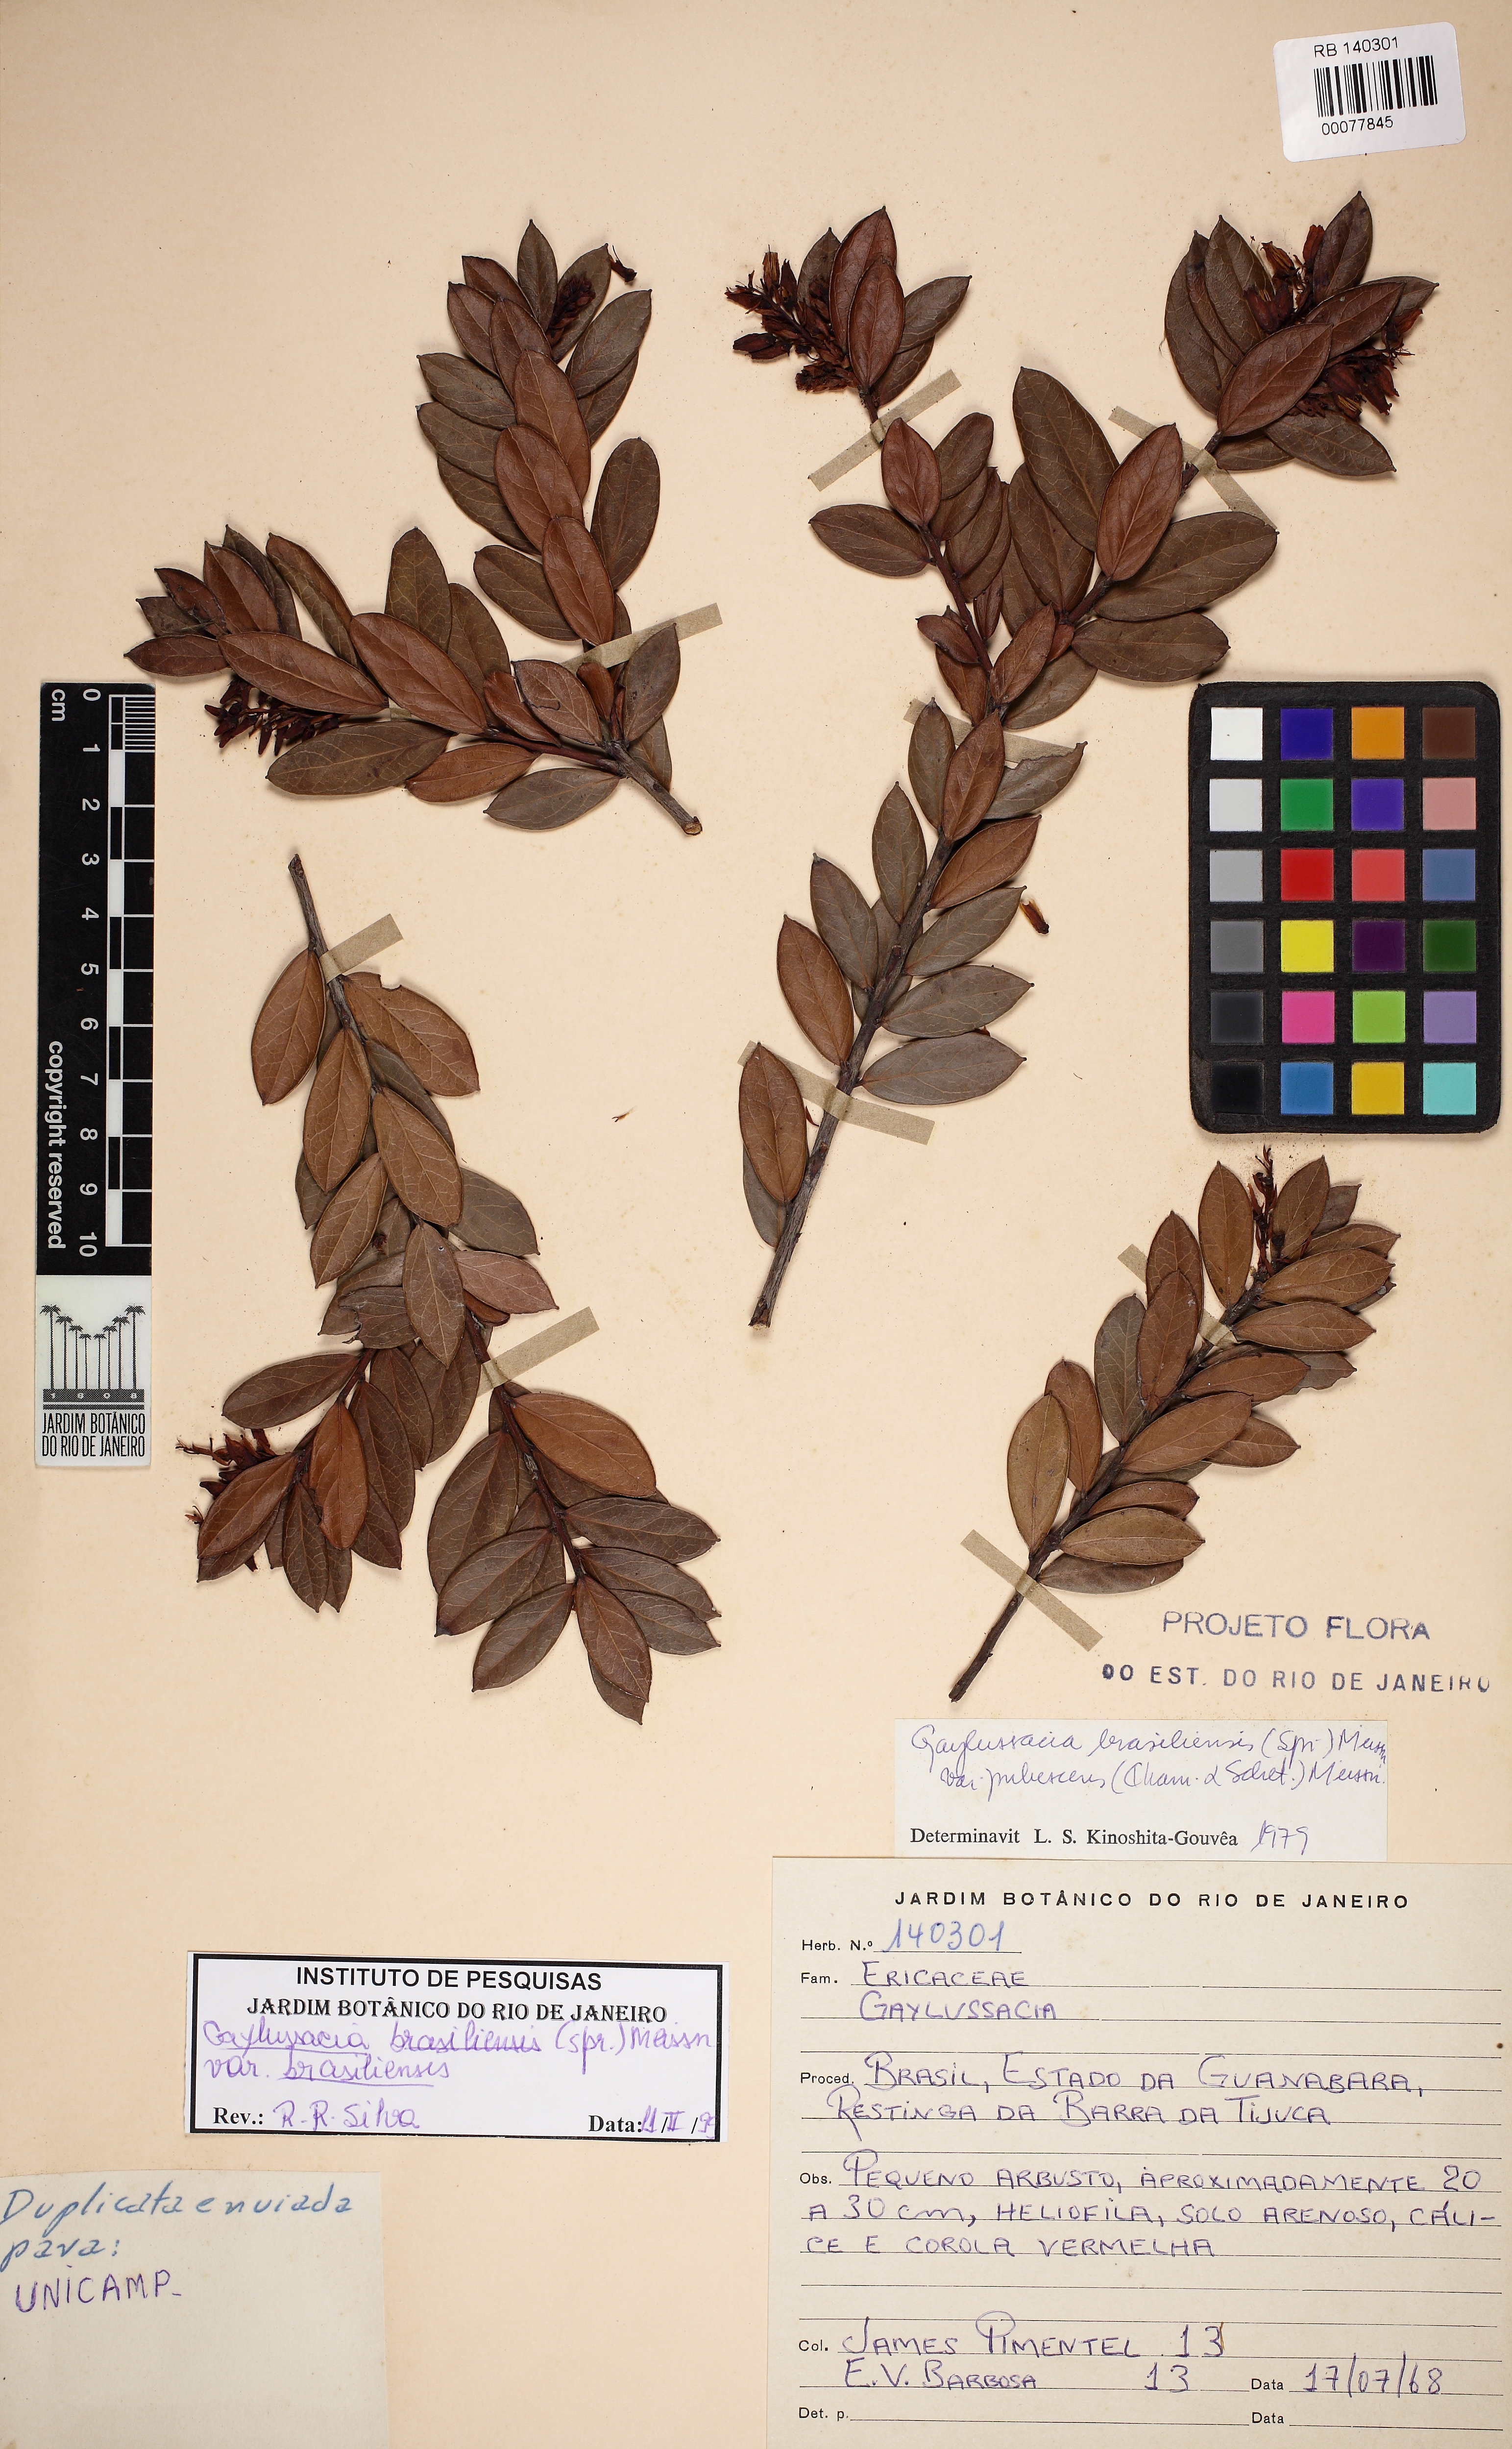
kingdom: Plantae
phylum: Tracheophyta
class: Magnoliopsida
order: Ericales
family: Ericaceae
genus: Gaylussacia
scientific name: Gaylussacia brasiliensis
